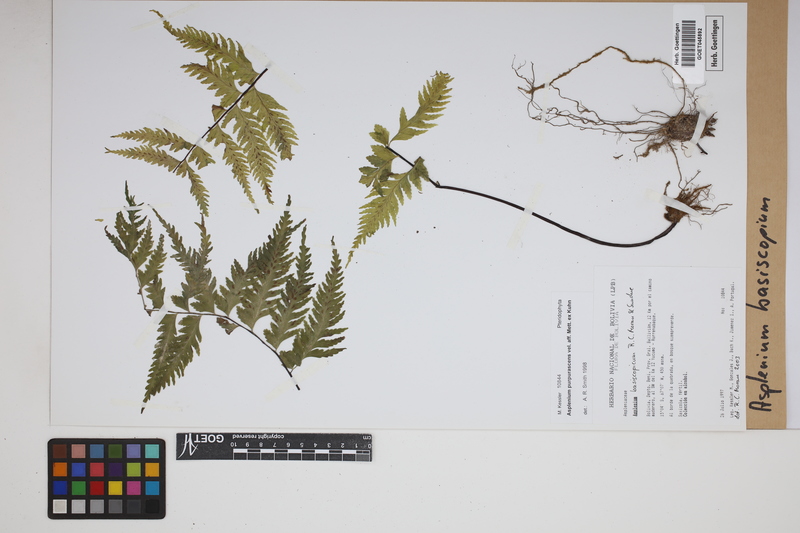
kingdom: Plantae
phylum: Tracheophyta
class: Polypodiopsida
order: Polypodiales
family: Aspleniaceae
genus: Hymenasplenium
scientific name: Hymenasplenium basiscopicum
